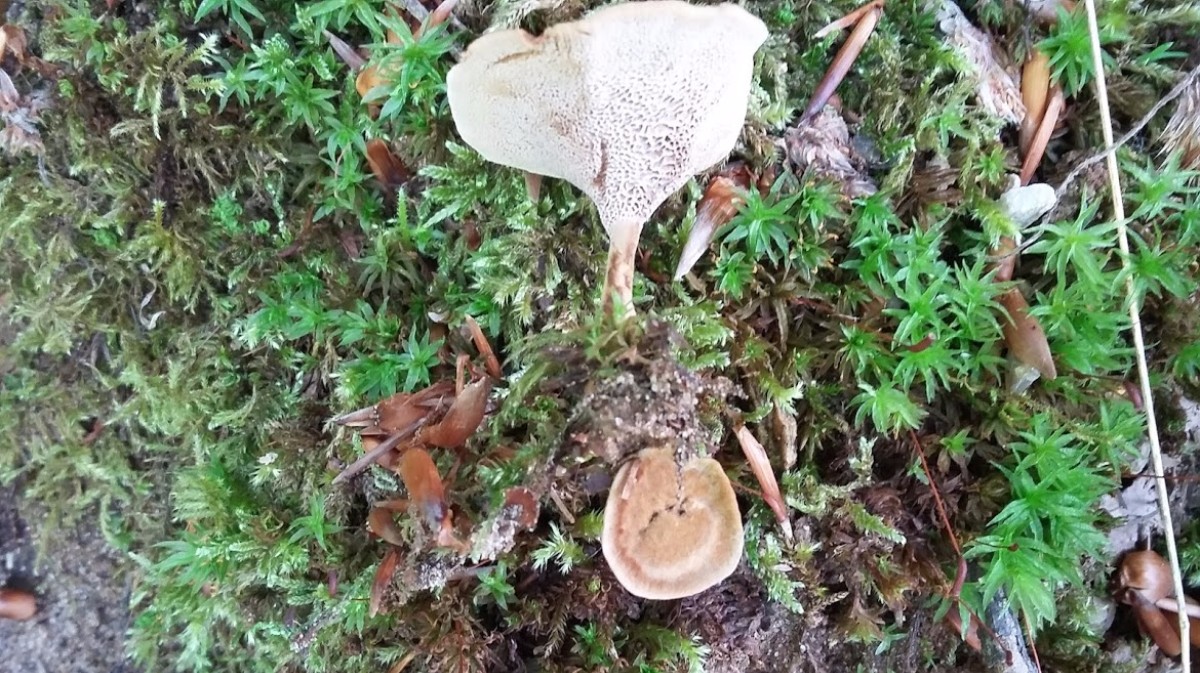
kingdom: Fungi
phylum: Basidiomycota
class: Agaricomycetes
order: Hymenochaetales
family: Hymenochaetaceae
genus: Coltricia
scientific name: Coltricia
